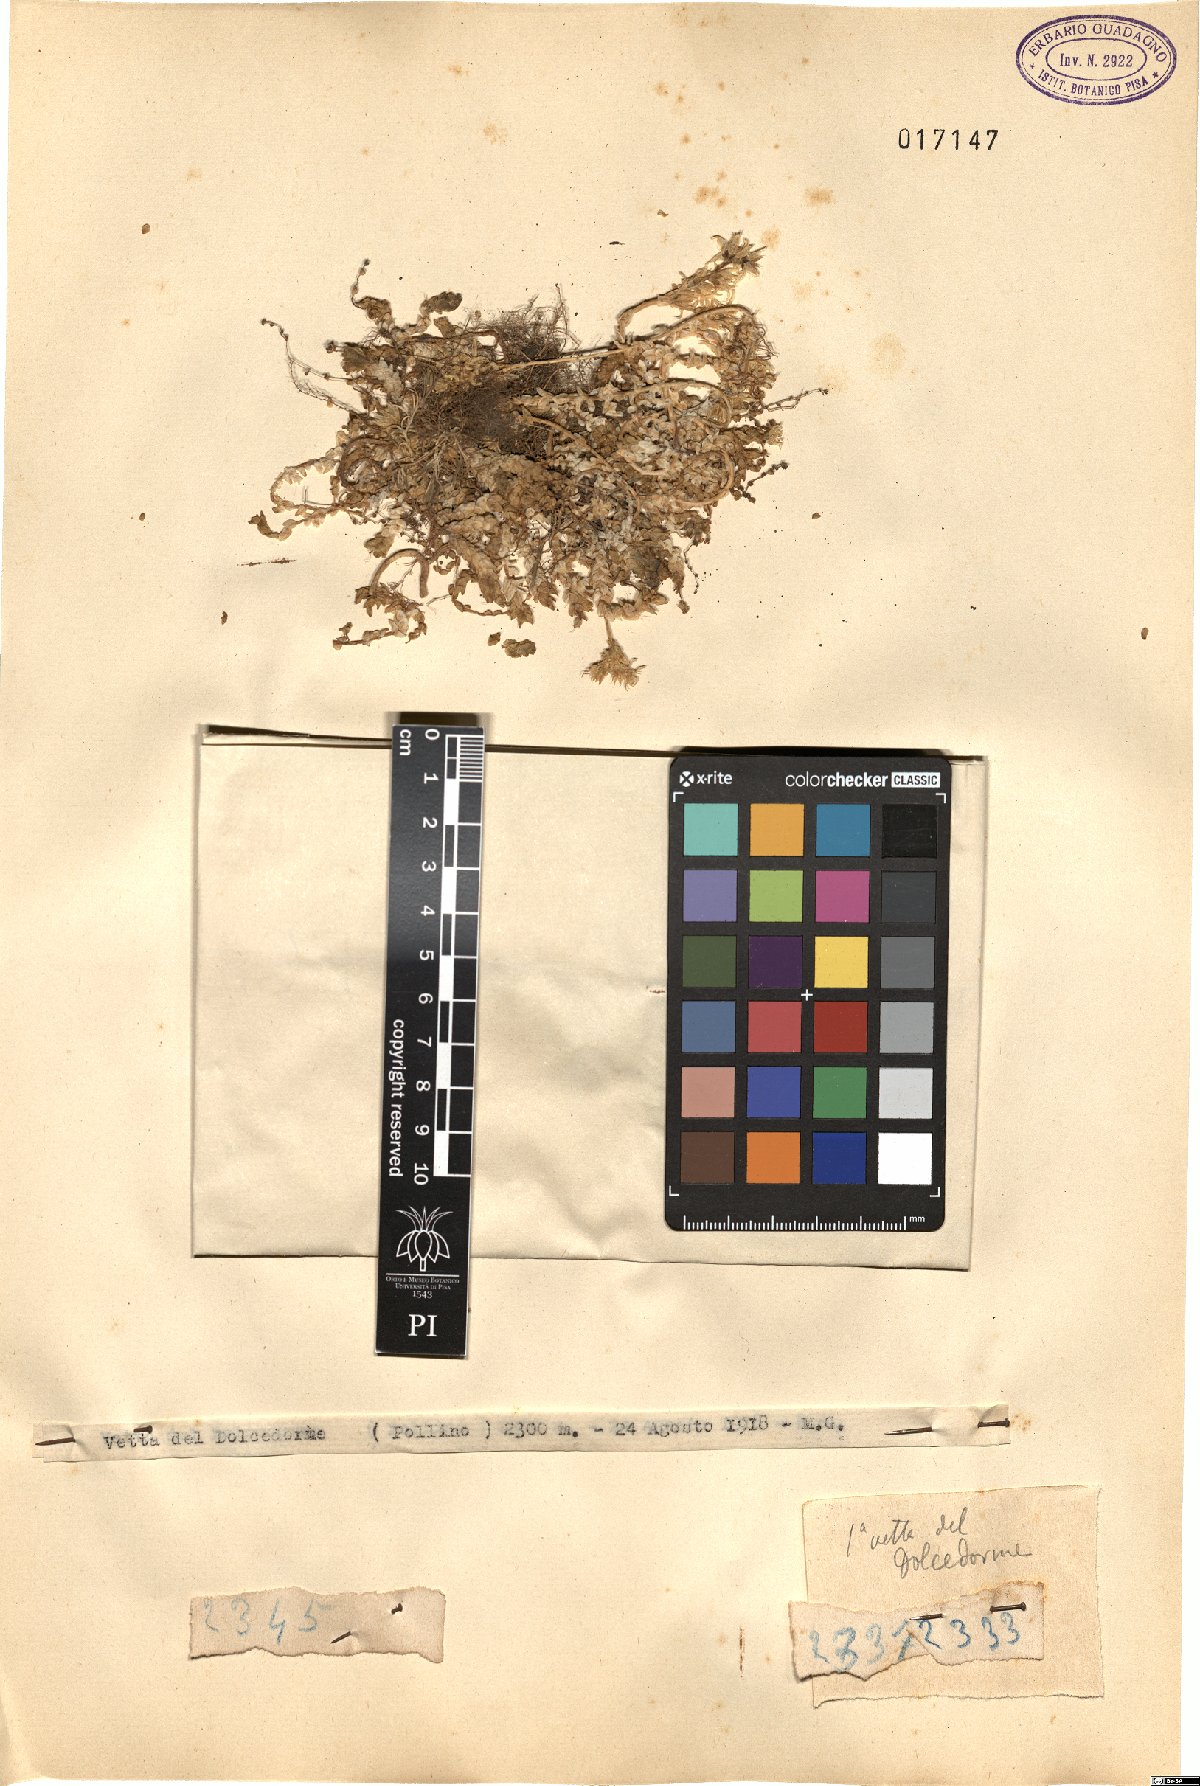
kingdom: Plantae
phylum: Tracheophyta
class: Magnoliopsida
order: Saxifragales
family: Crassulaceae
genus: Sedum
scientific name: Sedum
